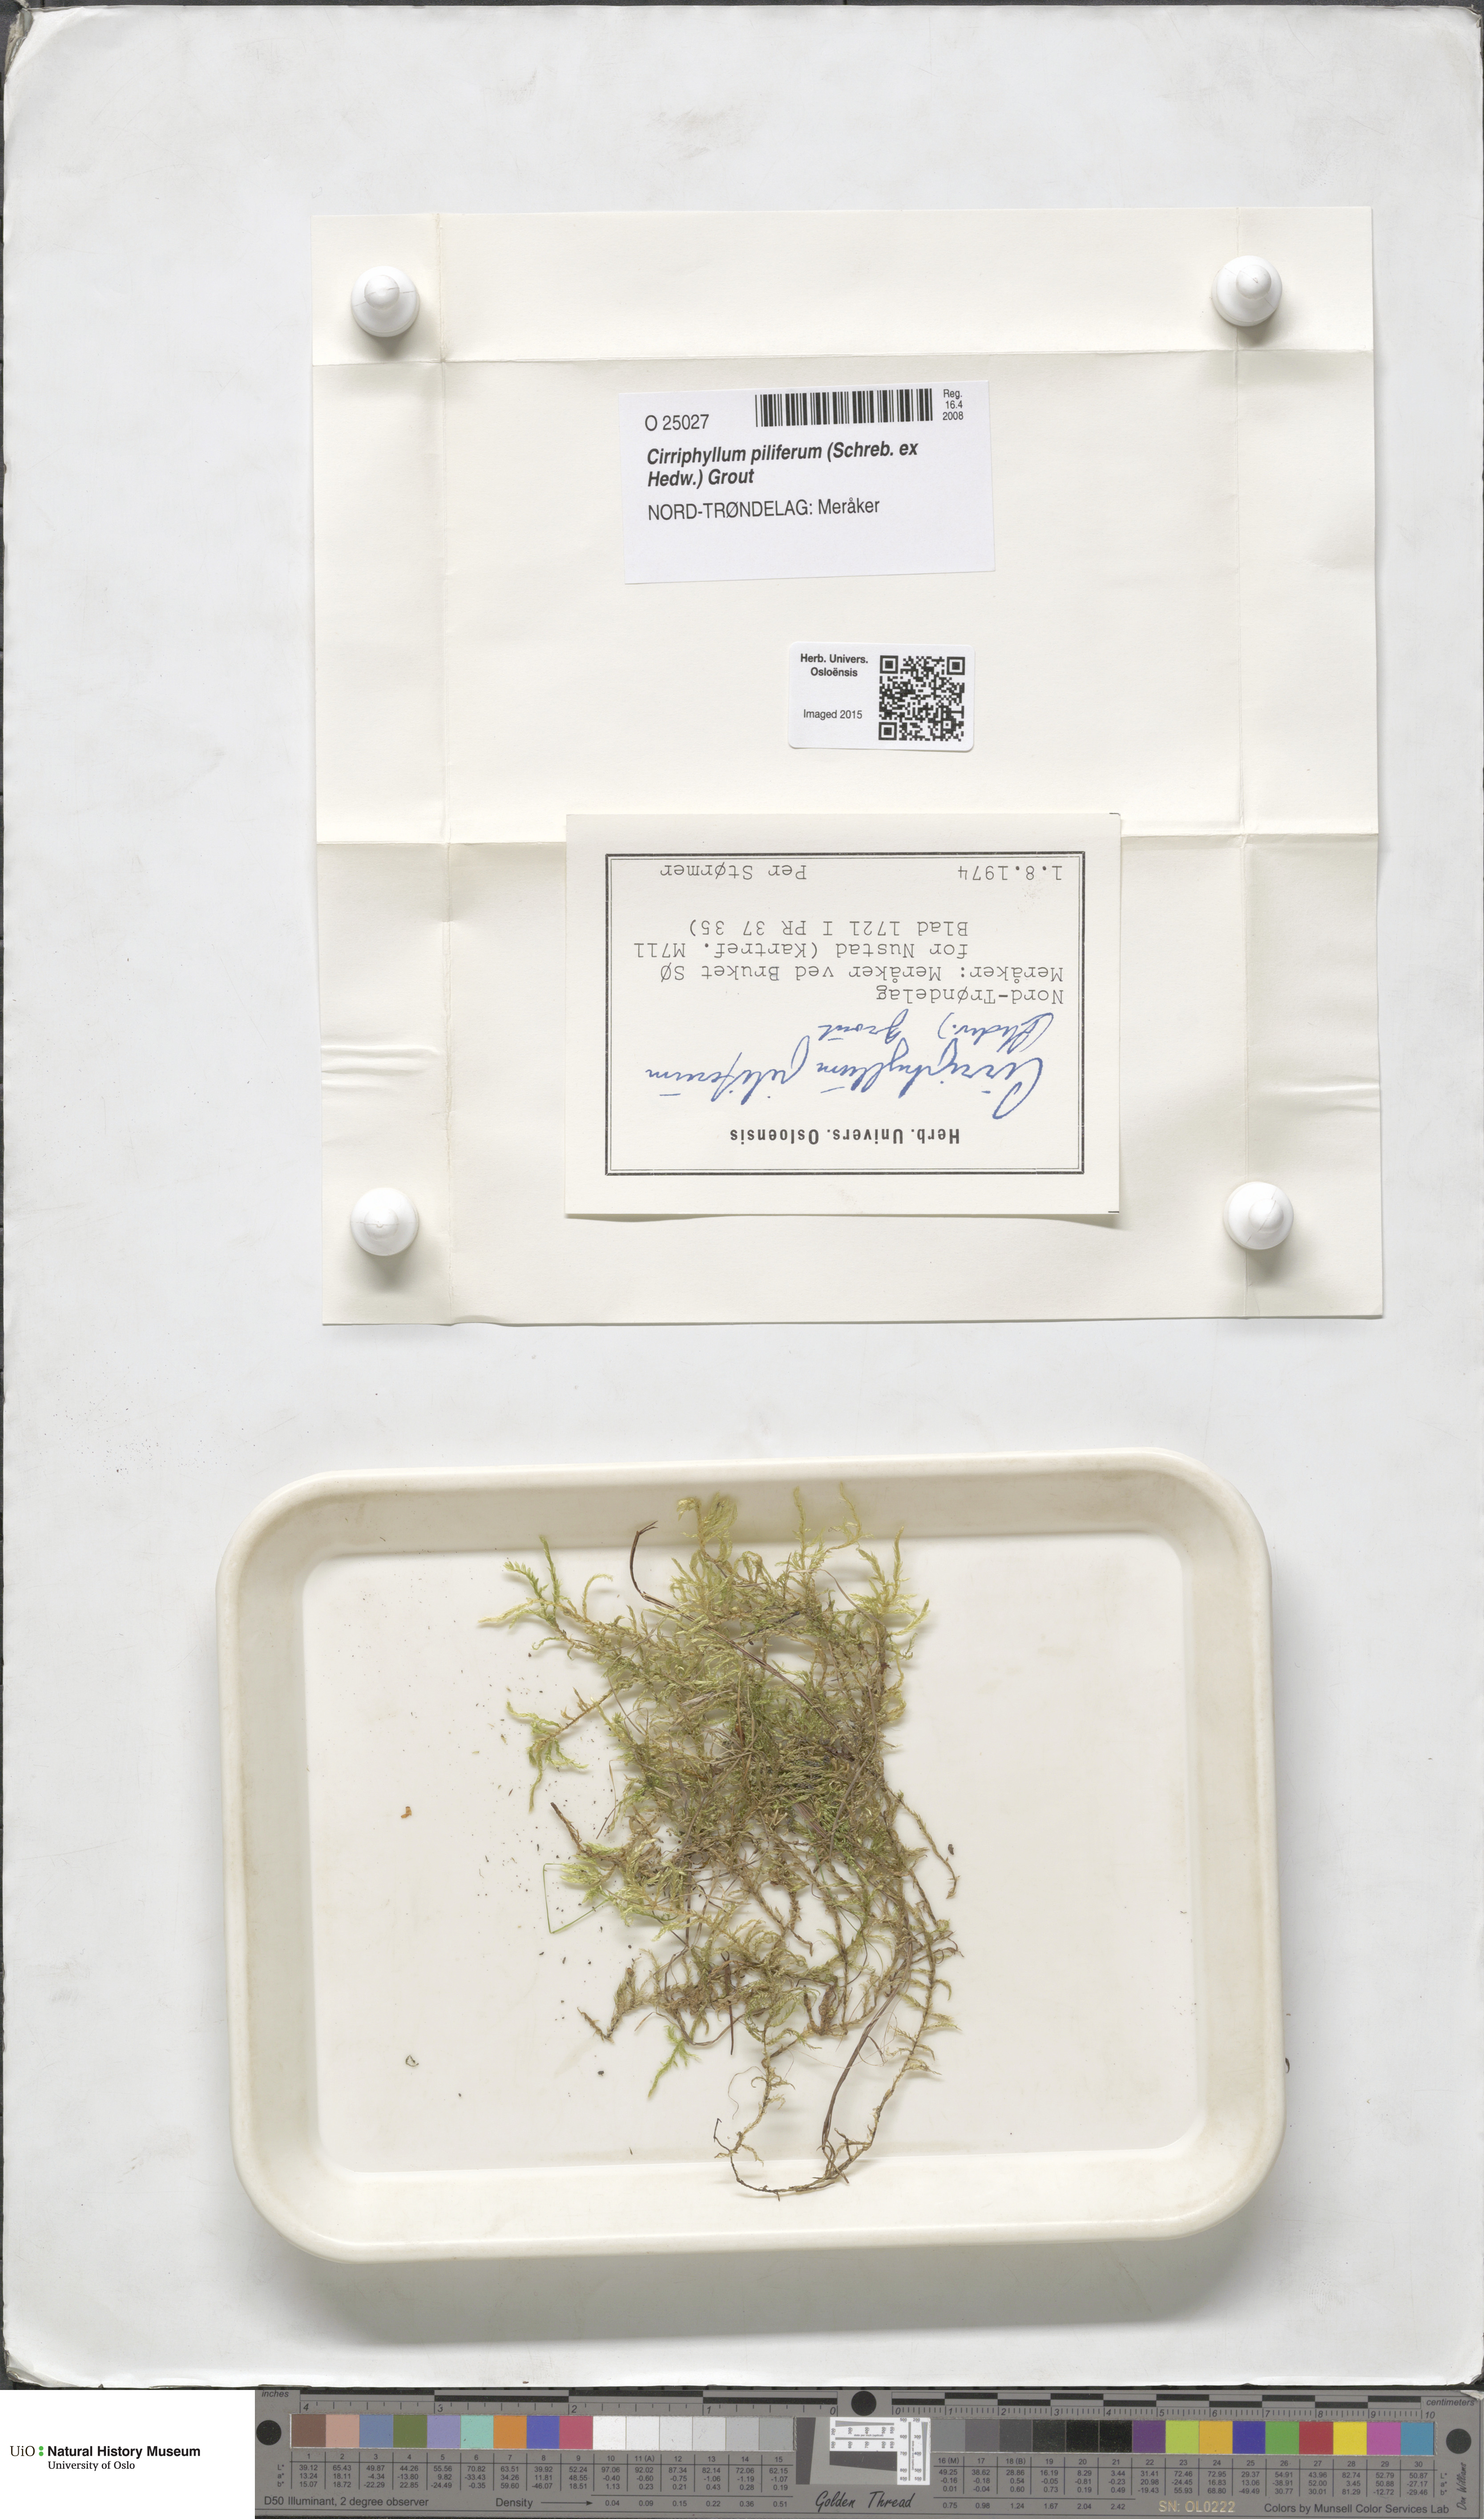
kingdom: Plantae
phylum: Bryophyta
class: Bryopsida
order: Hypnales
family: Brachytheciaceae
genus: Cirriphyllum
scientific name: Cirriphyllum piliferum
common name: Hair-pointed moss
